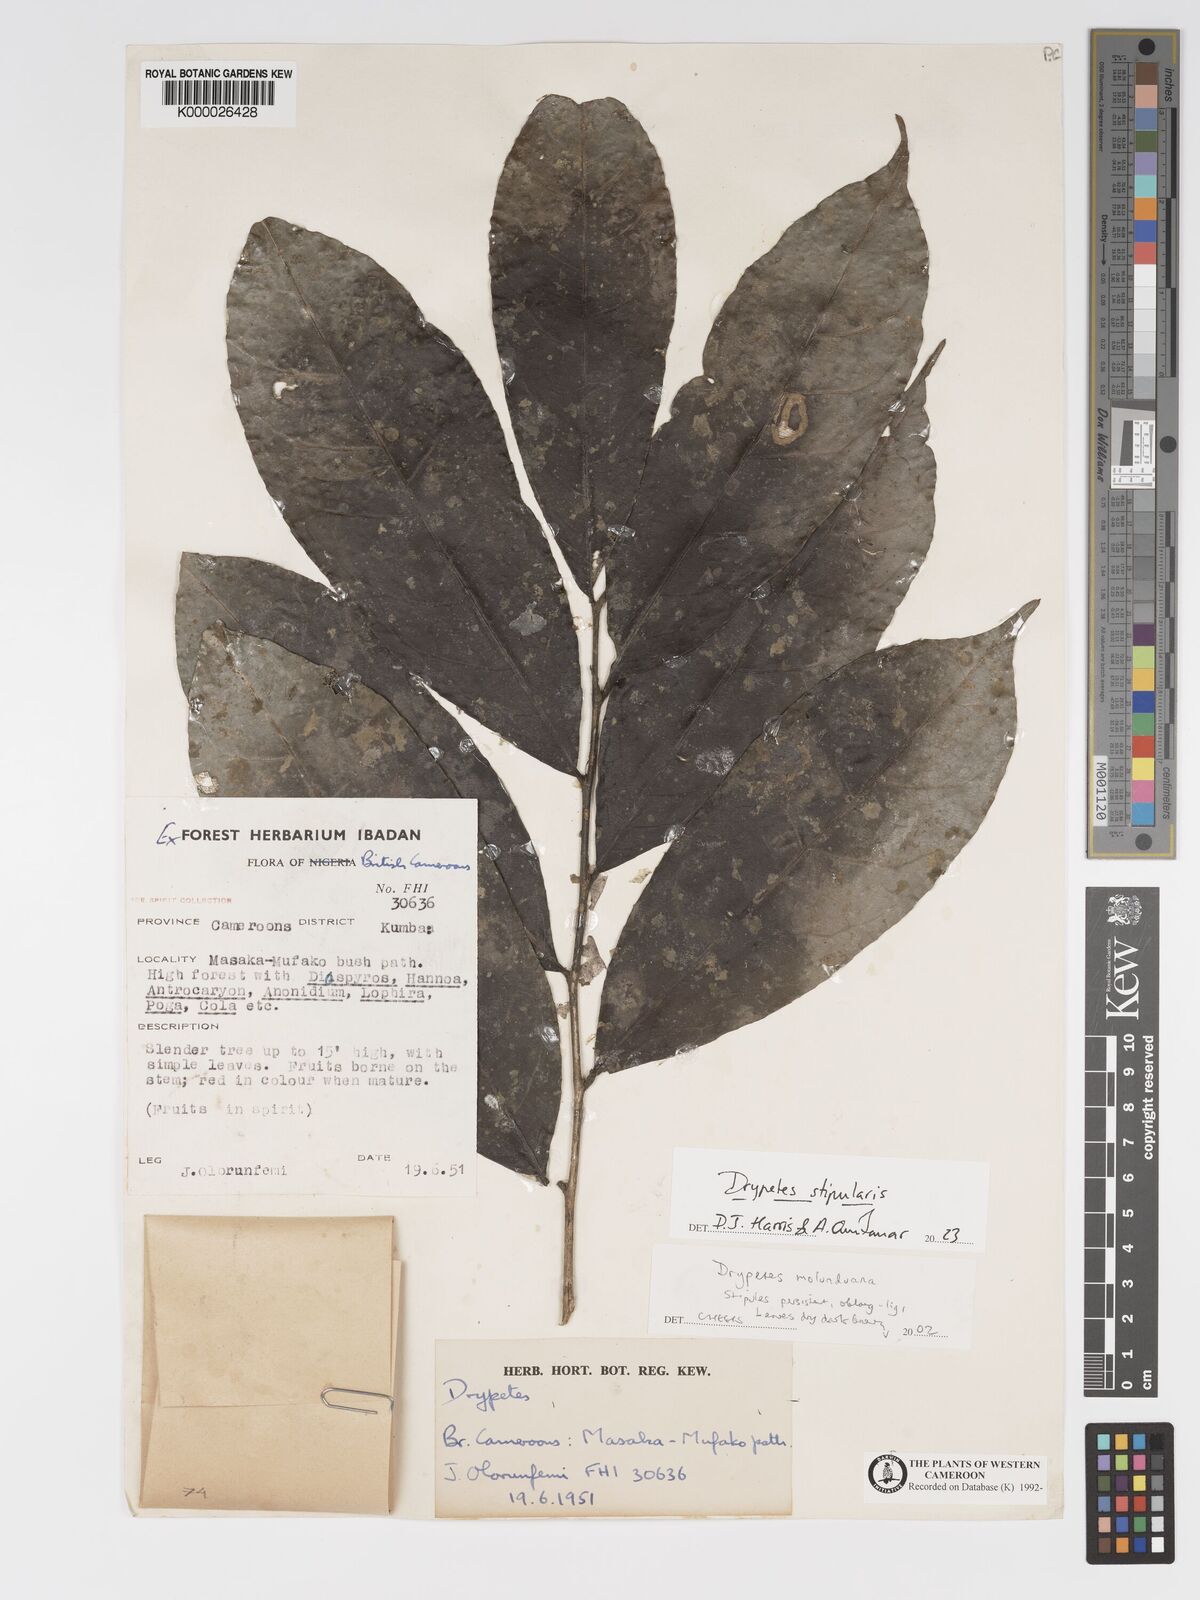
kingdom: Plantae
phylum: Tracheophyta
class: Magnoliopsida
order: Malpighiales
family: Putranjivaceae
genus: Drypetes
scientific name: Drypetes molunduana
